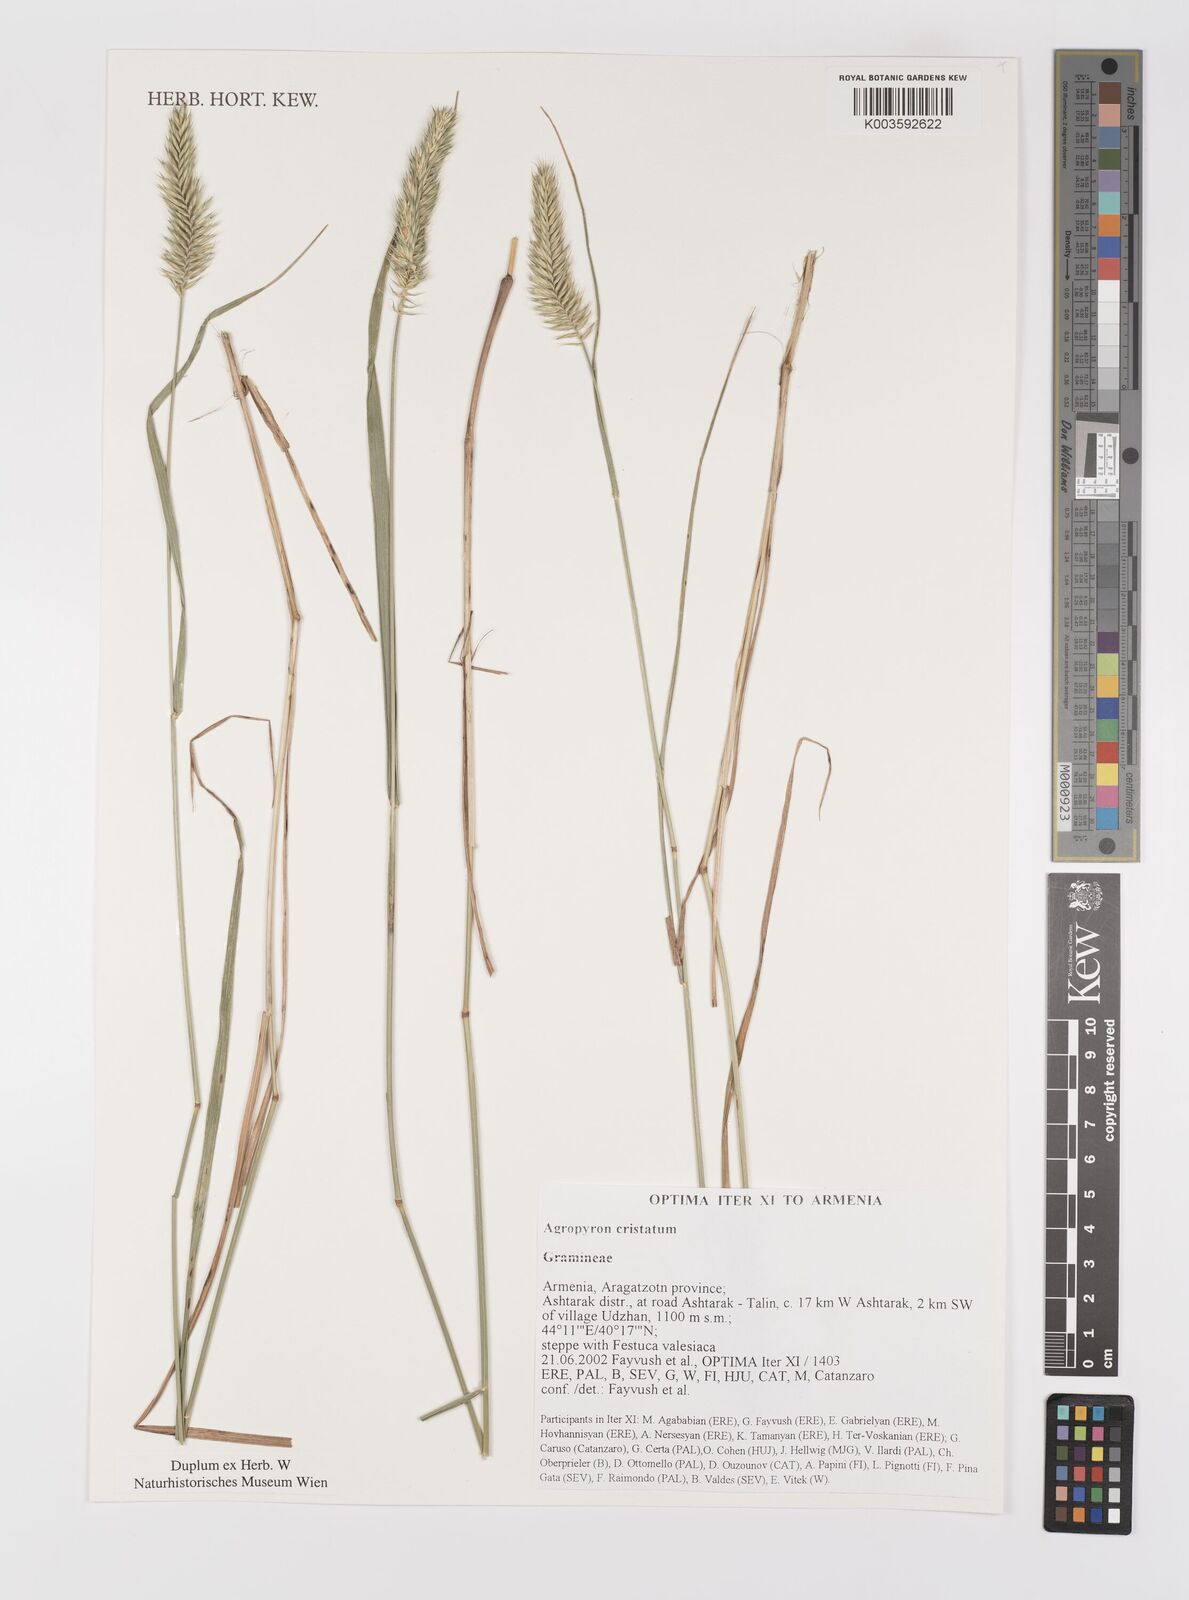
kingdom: Plantae
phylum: Tracheophyta
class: Liliopsida
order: Poales
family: Poaceae
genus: Agropyron
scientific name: Agropyron cristatum
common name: Crested wheatgrass
